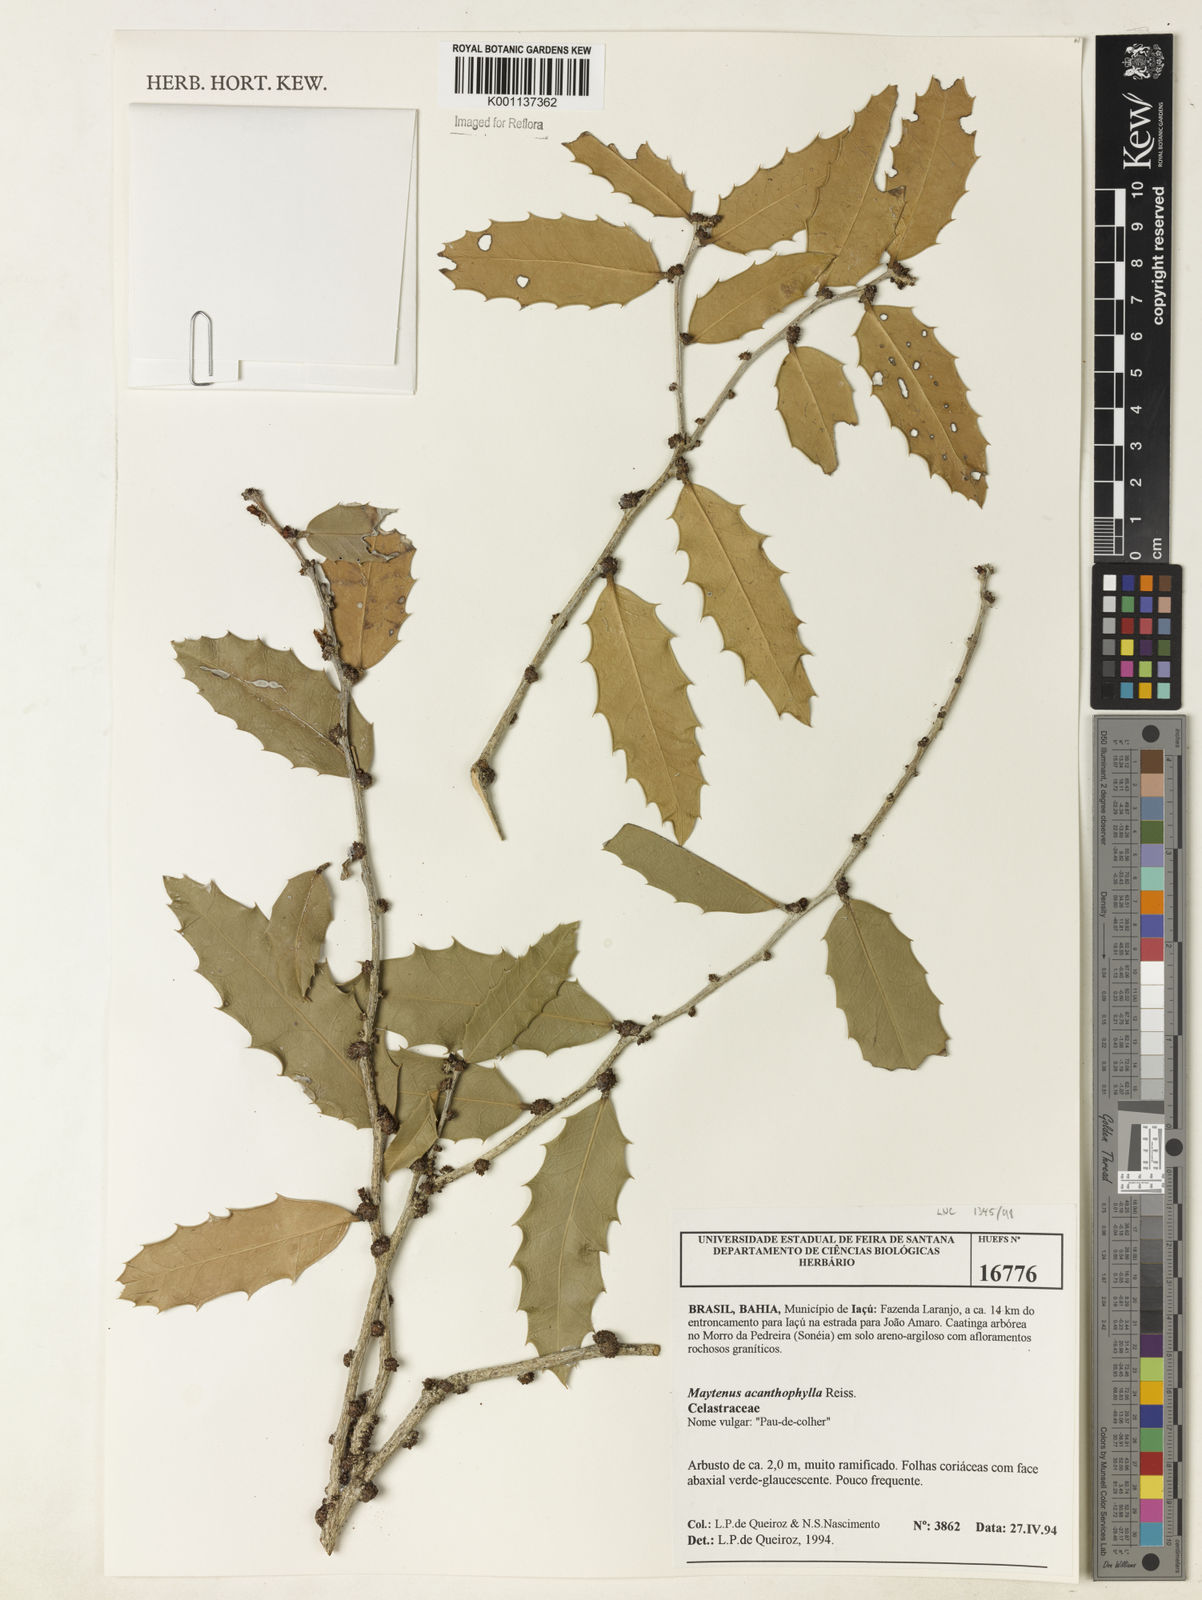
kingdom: Plantae
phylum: Tracheophyta
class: Magnoliopsida
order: Celastrales
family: Celastraceae
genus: Monteverdia
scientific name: Monteverdia acanthophylla
